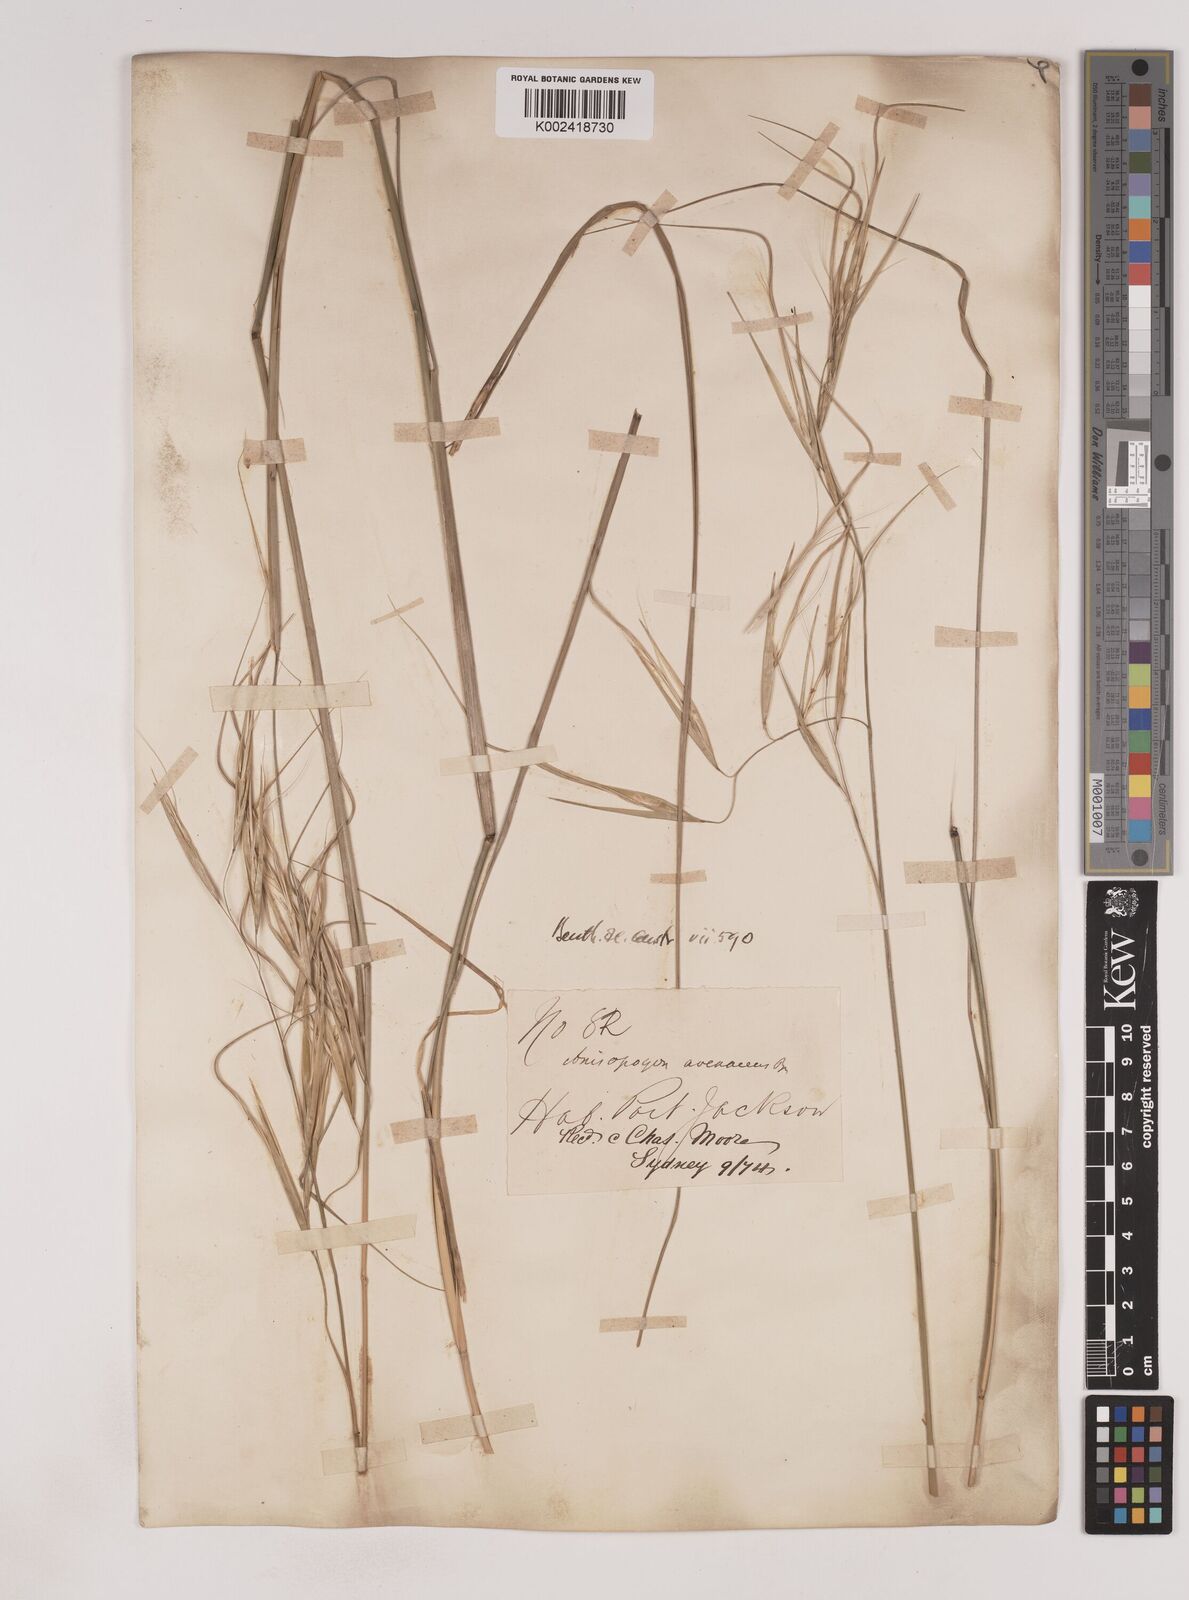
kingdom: Plantae
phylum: Tracheophyta
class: Liliopsida
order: Poales
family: Poaceae
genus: Anisopogon
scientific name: Anisopogon avenaceus
